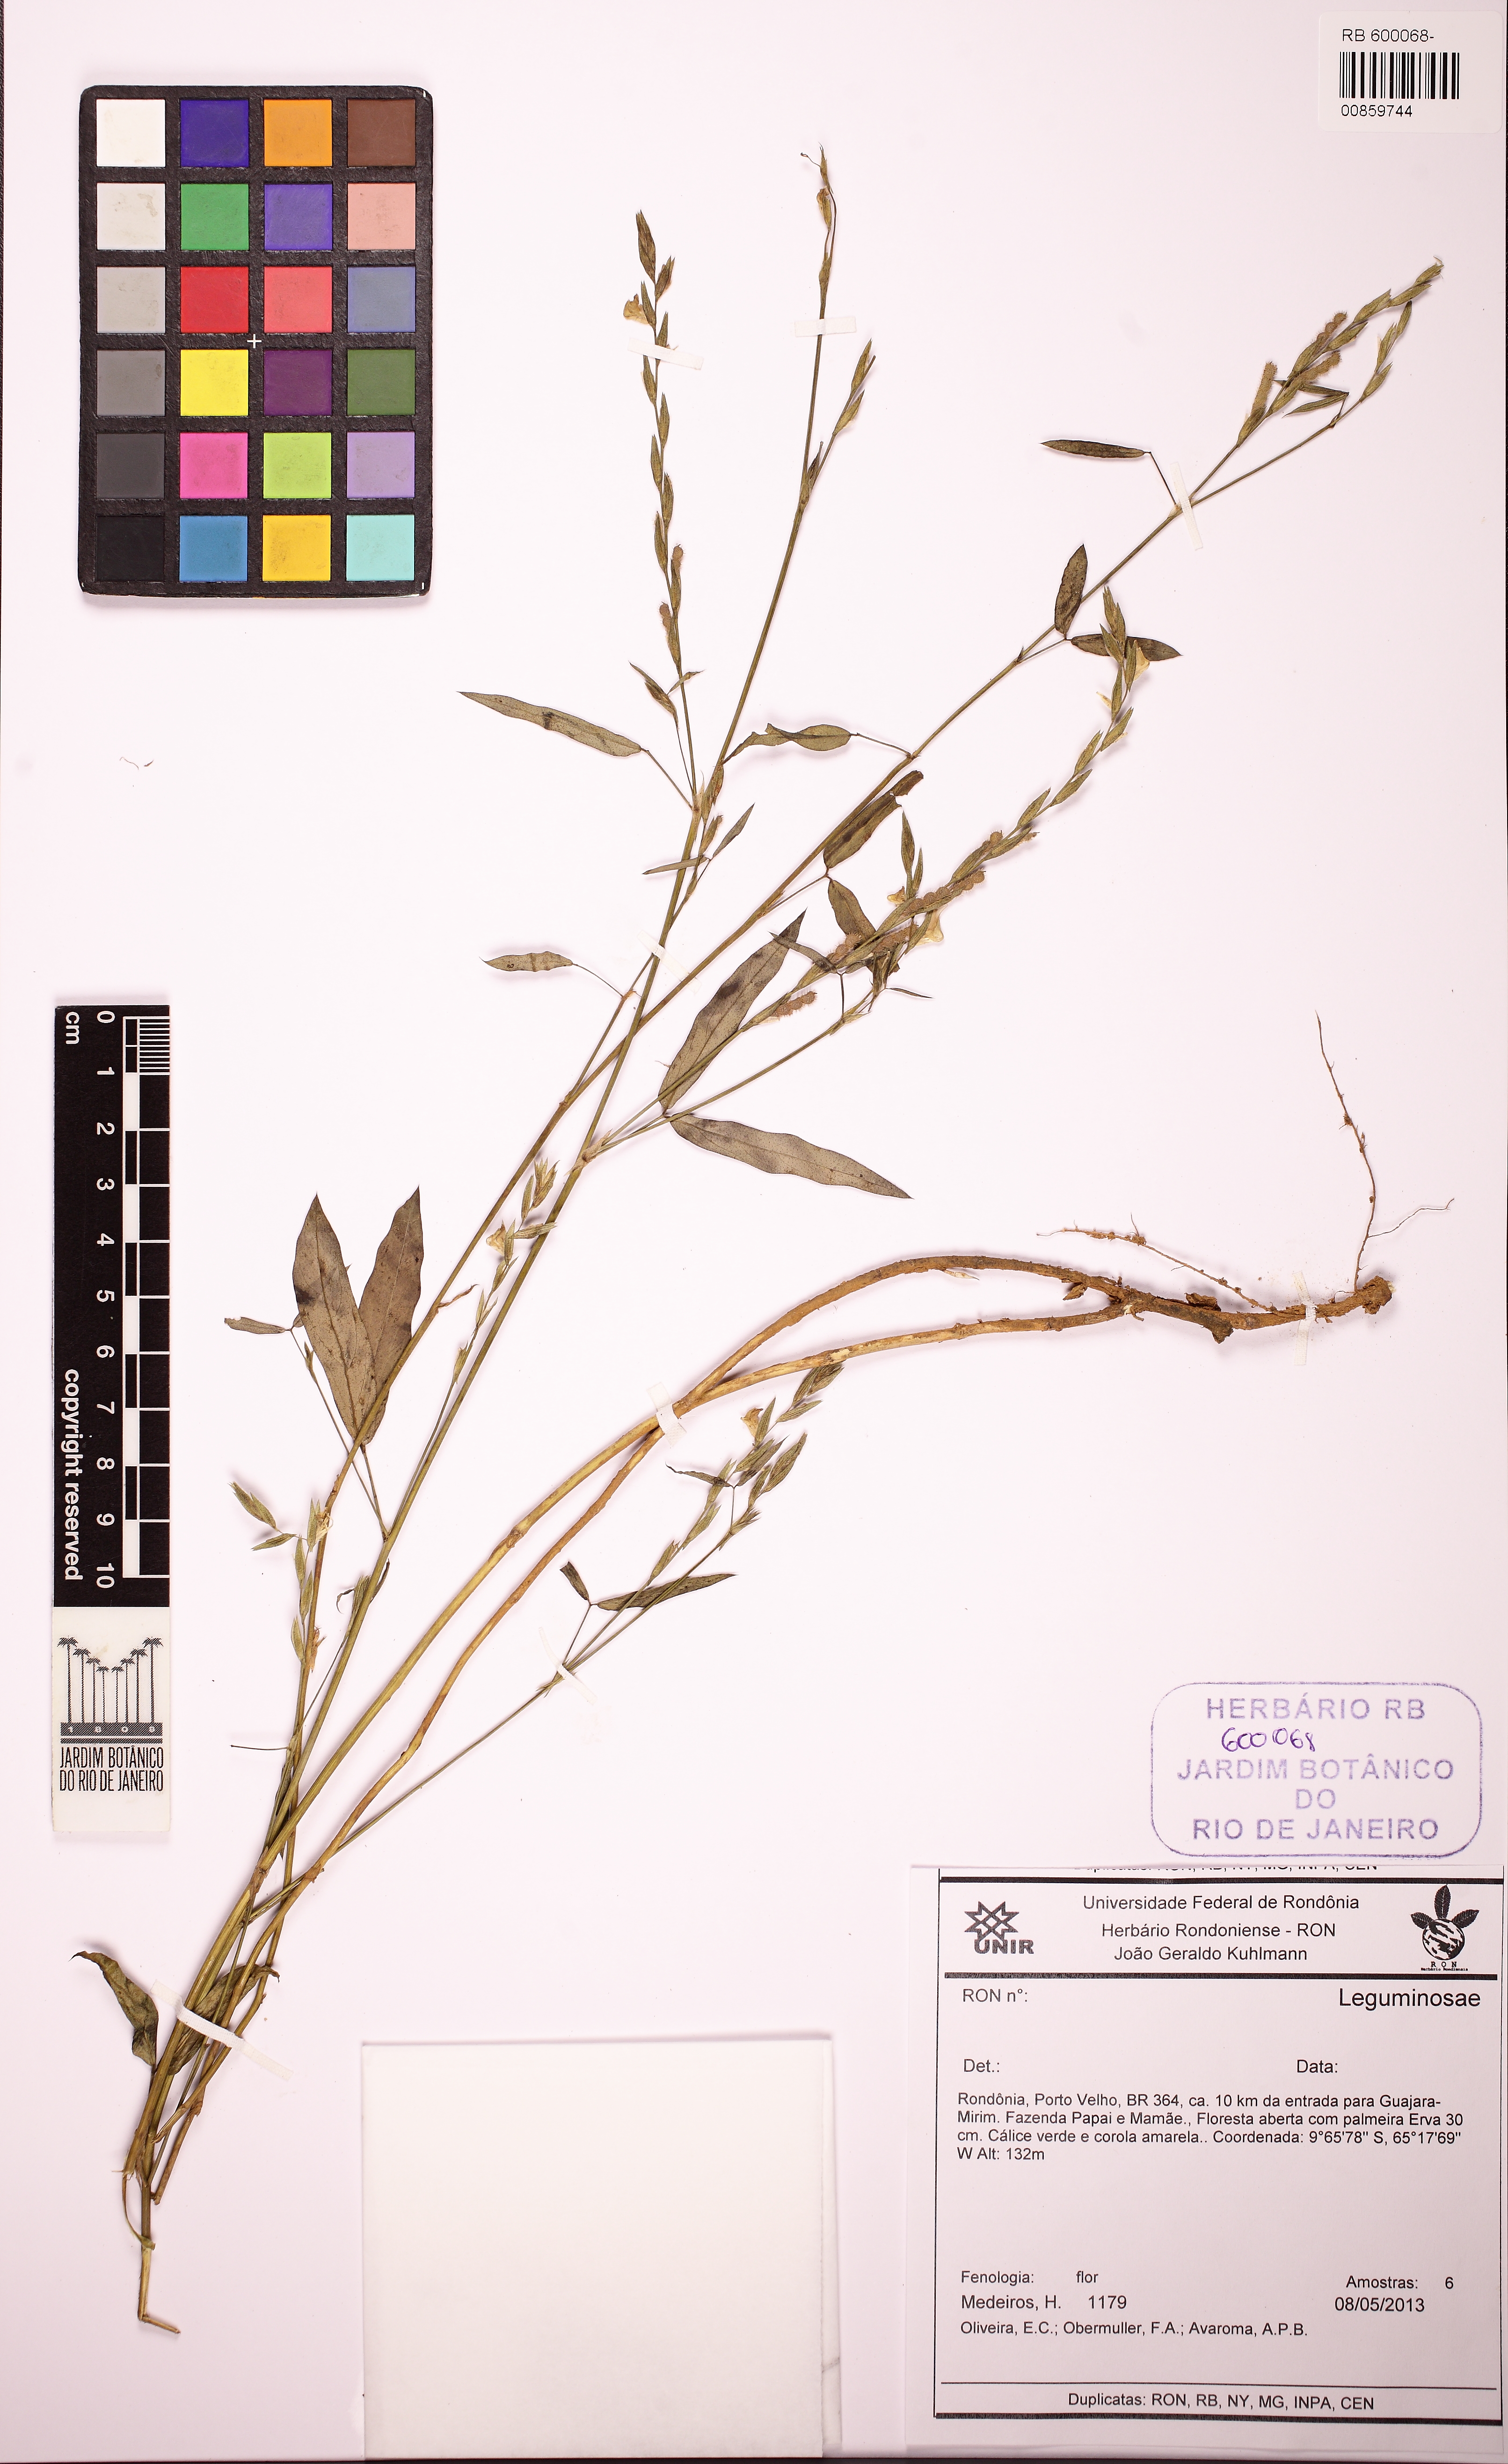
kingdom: Plantae
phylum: Tracheophyta
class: Magnoliopsida
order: Fabales
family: Fabaceae
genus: Zornia
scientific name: Zornia
